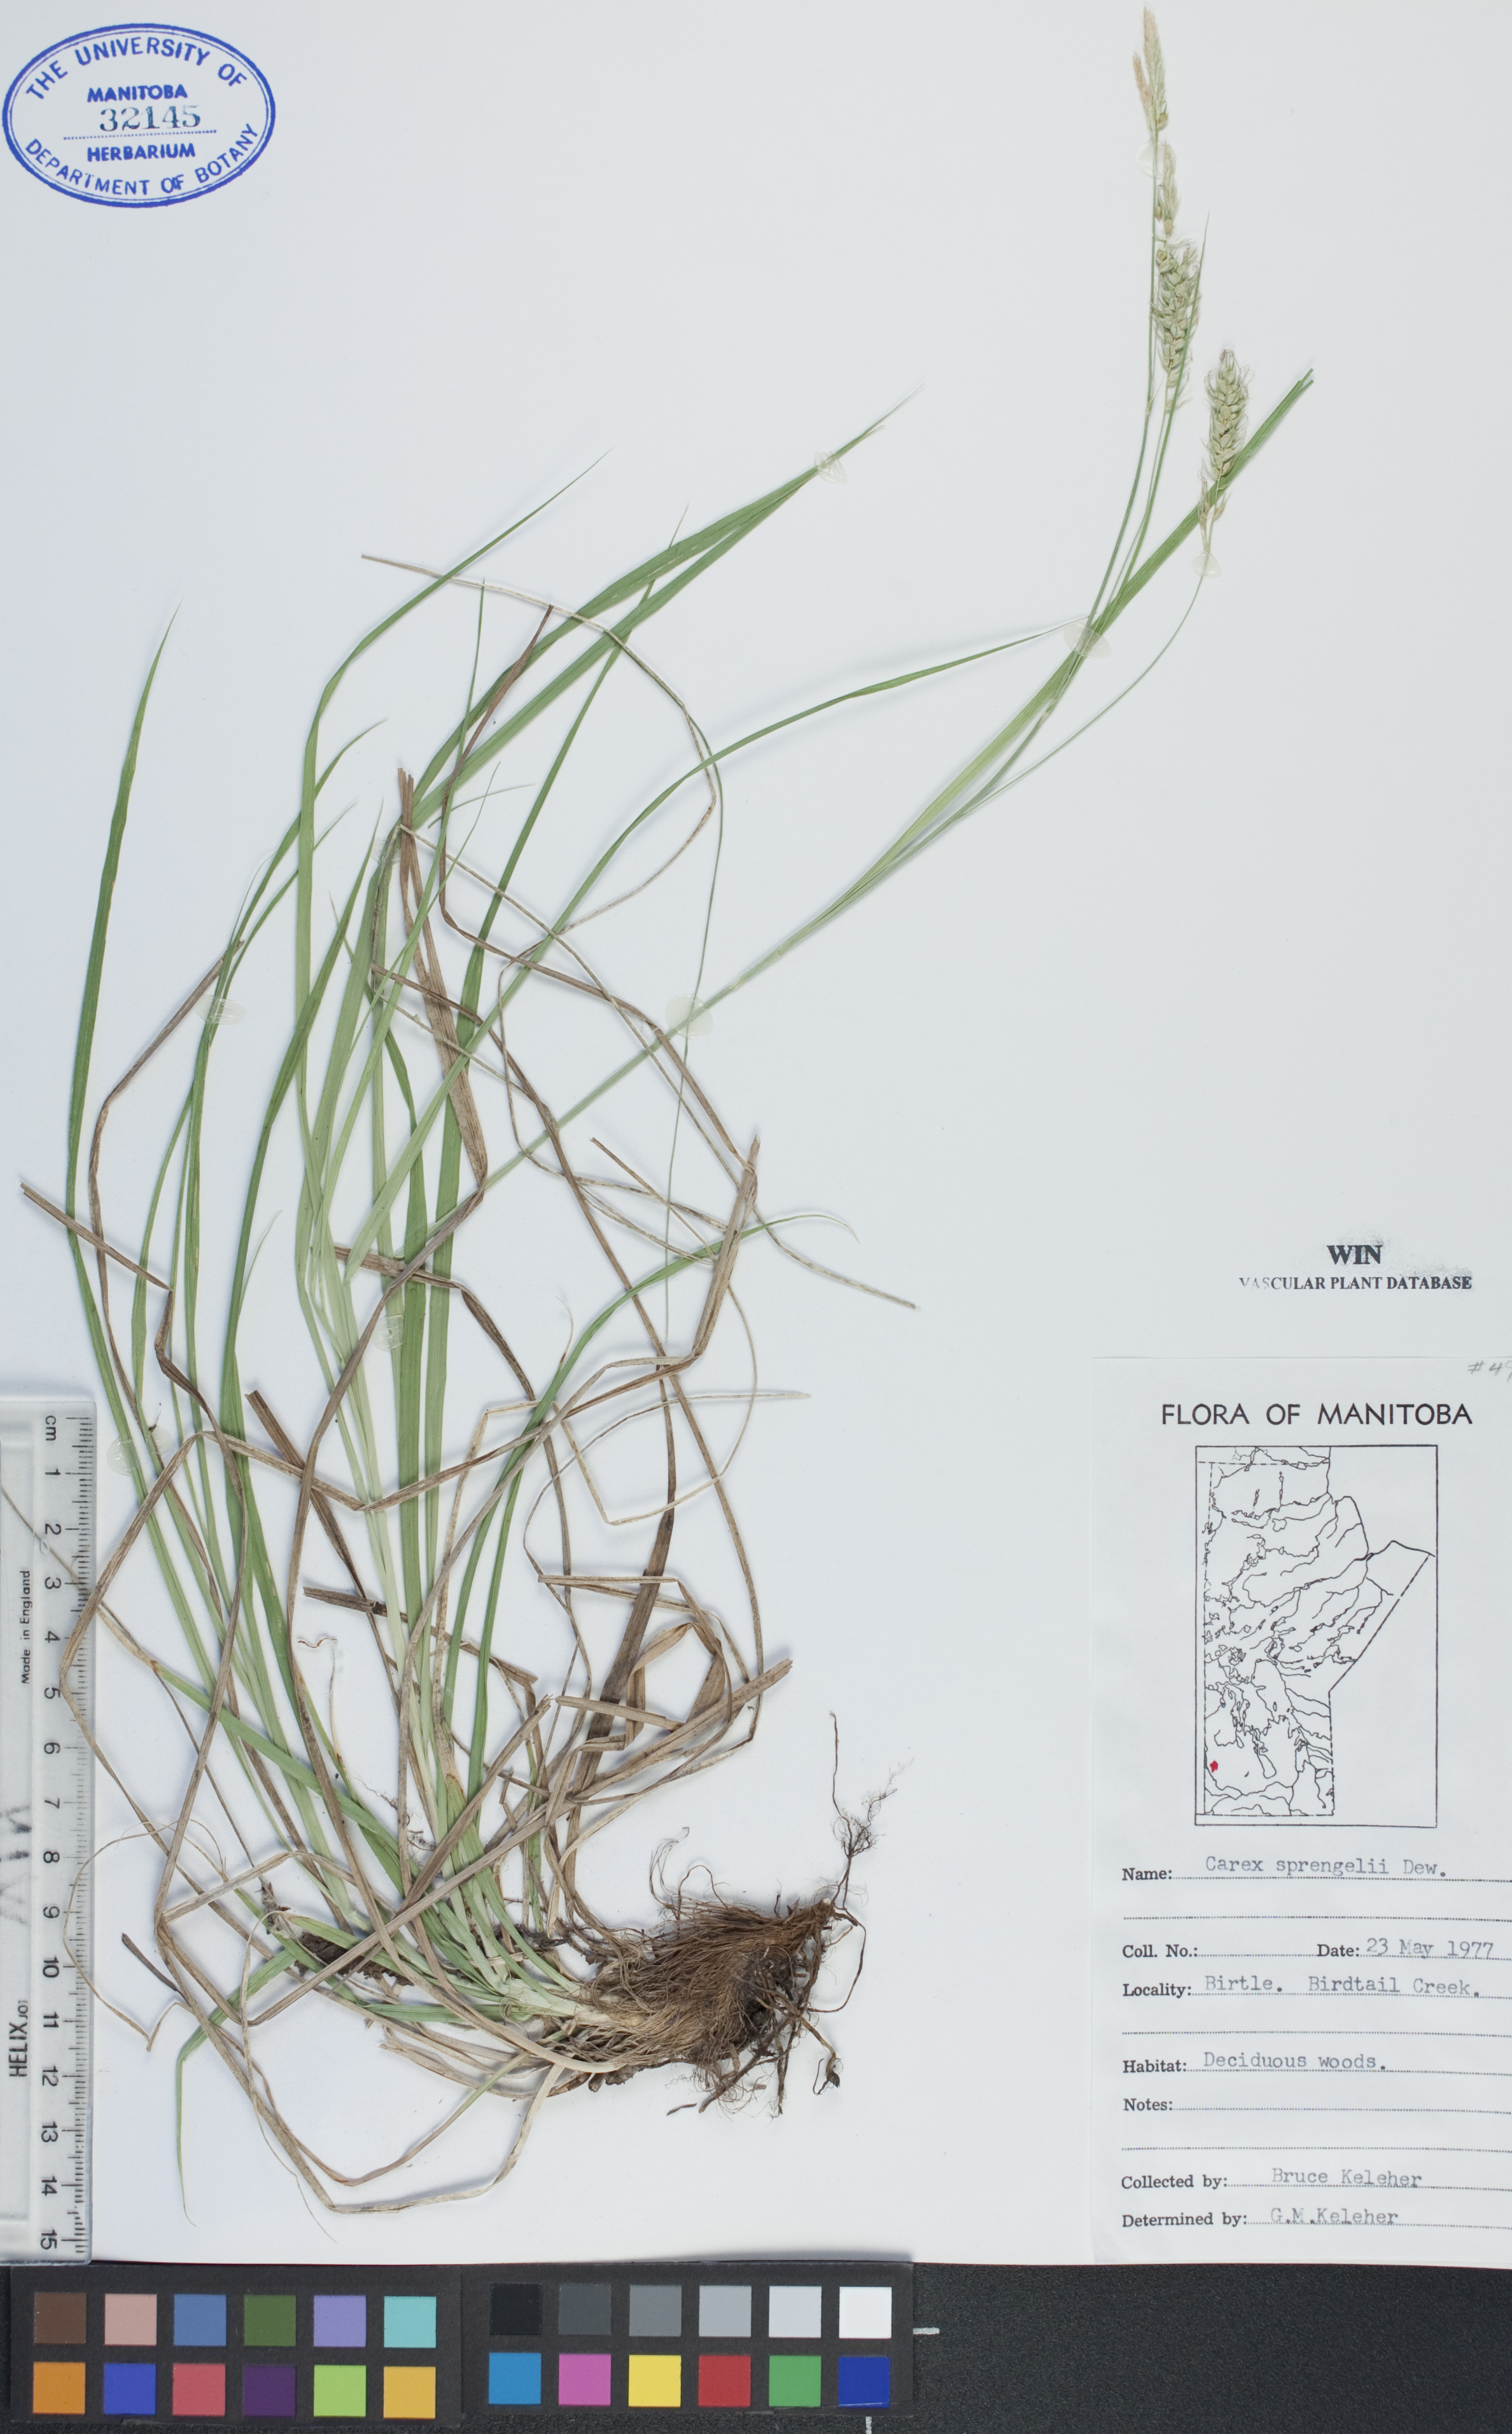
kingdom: Plantae
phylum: Tracheophyta
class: Liliopsida
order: Poales
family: Cyperaceae
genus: Carex
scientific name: Carex sprengelii
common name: Long-beaked sedge
